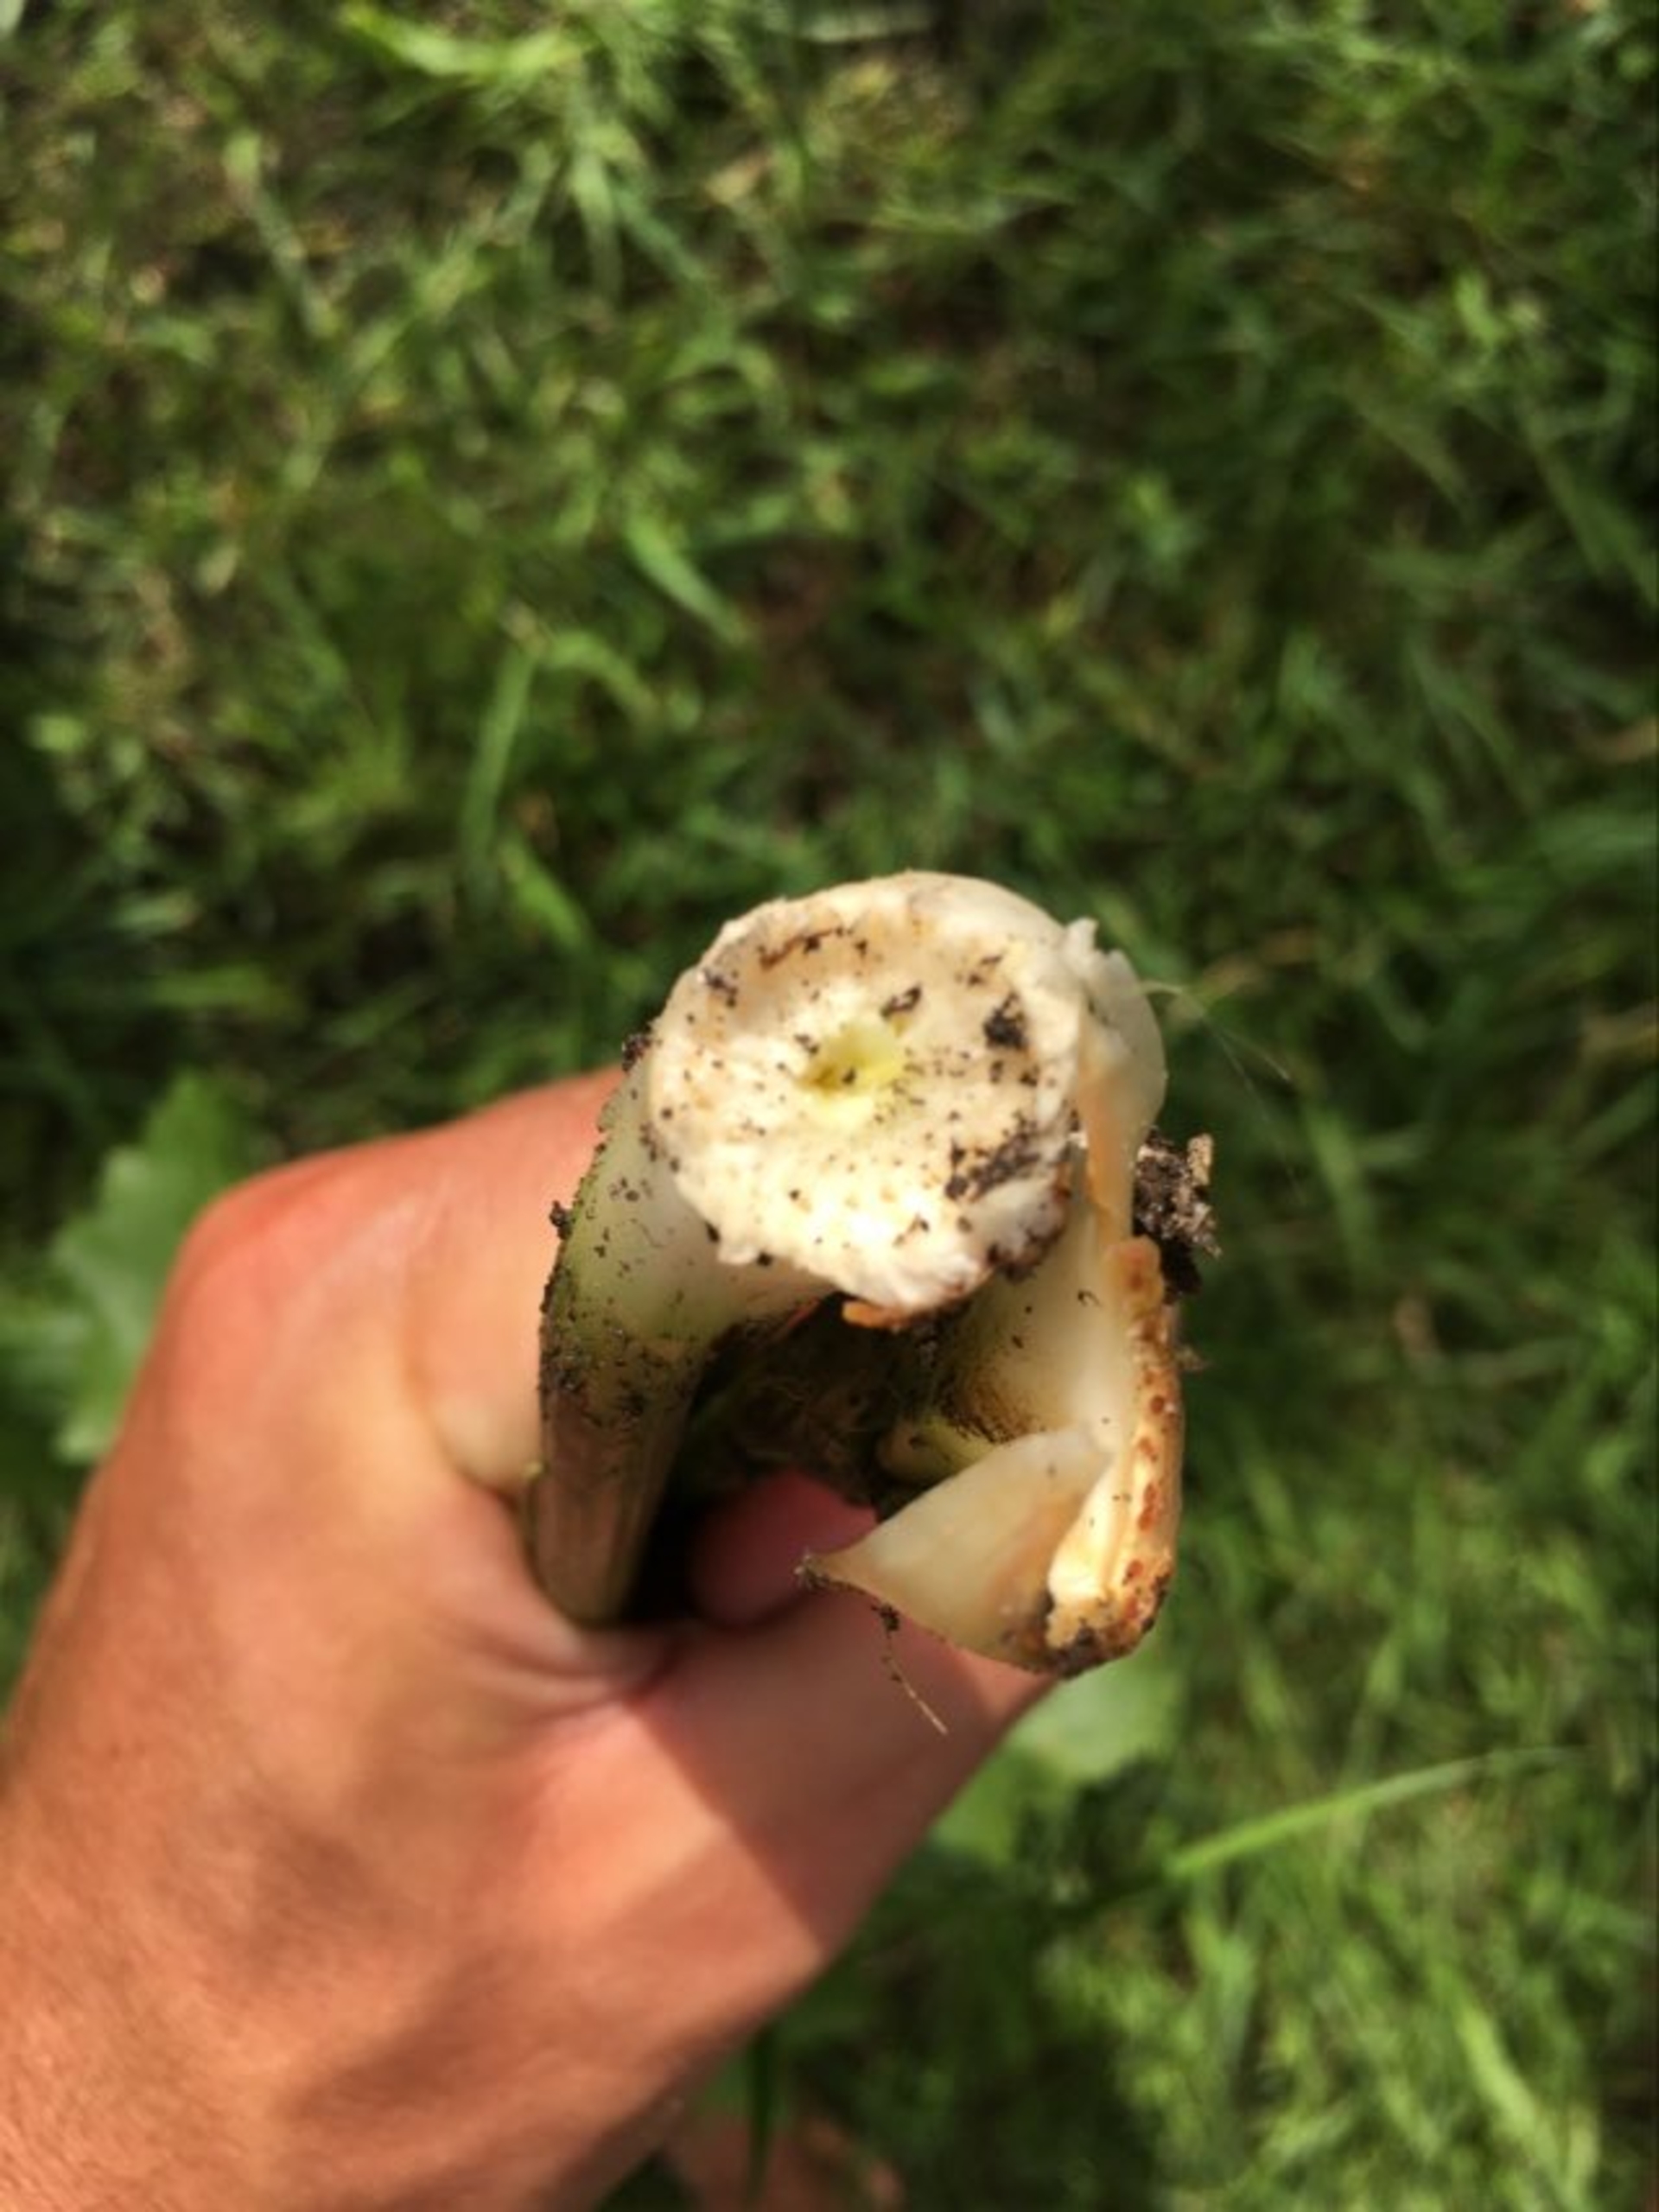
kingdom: Plantae
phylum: Tracheophyta
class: Magnoliopsida
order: Brassicales
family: Brassicaceae
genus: Armoracia
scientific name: Armoracia rusticana
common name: Peberrod
